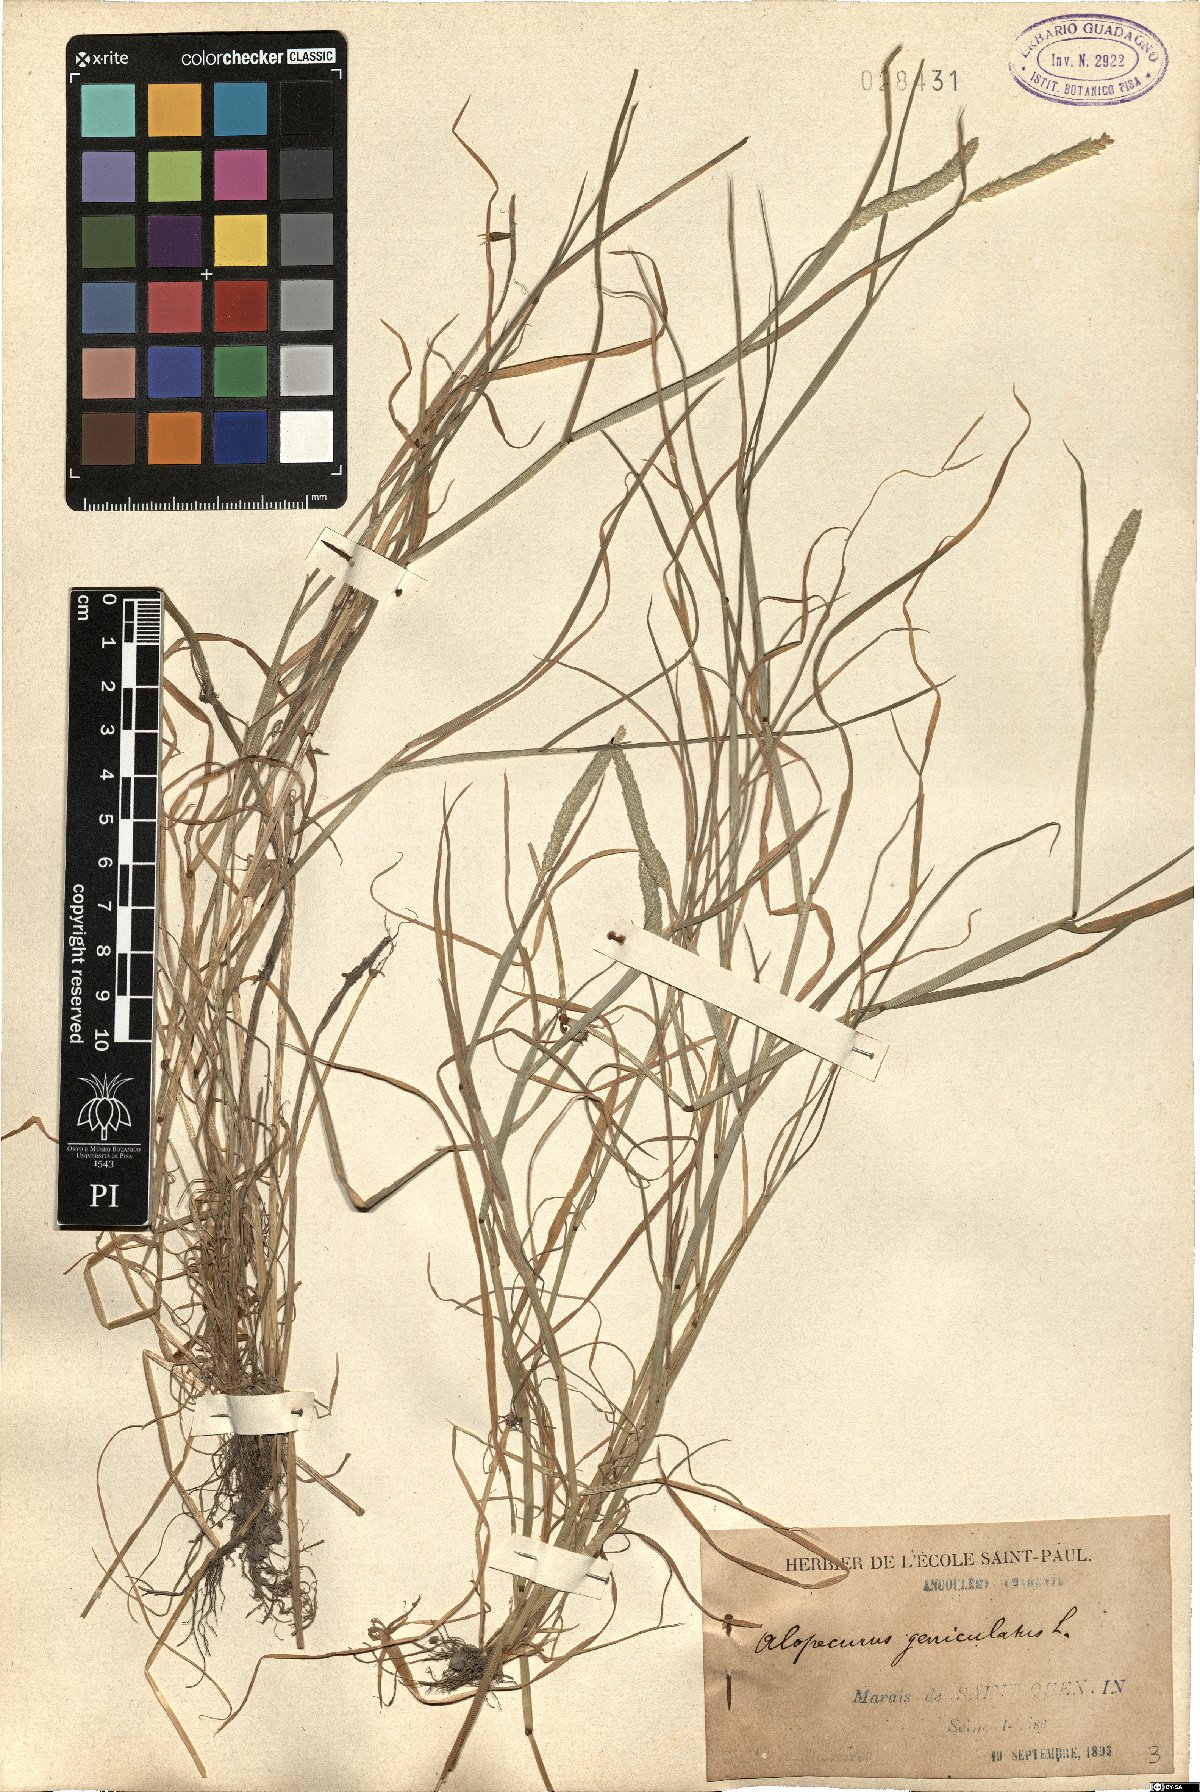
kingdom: Plantae
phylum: Tracheophyta
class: Liliopsida
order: Poales
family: Poaceae
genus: Alopecurus
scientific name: Alopecurus geniculatus
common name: Water foxtail
